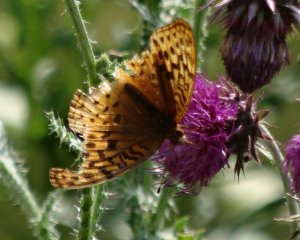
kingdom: Animalia
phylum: Arthropoda
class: Insecta
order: Lepidoptera
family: Nymphalidae
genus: Speyeria
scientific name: Speyeria cybele
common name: Great Spangled Fritillary
